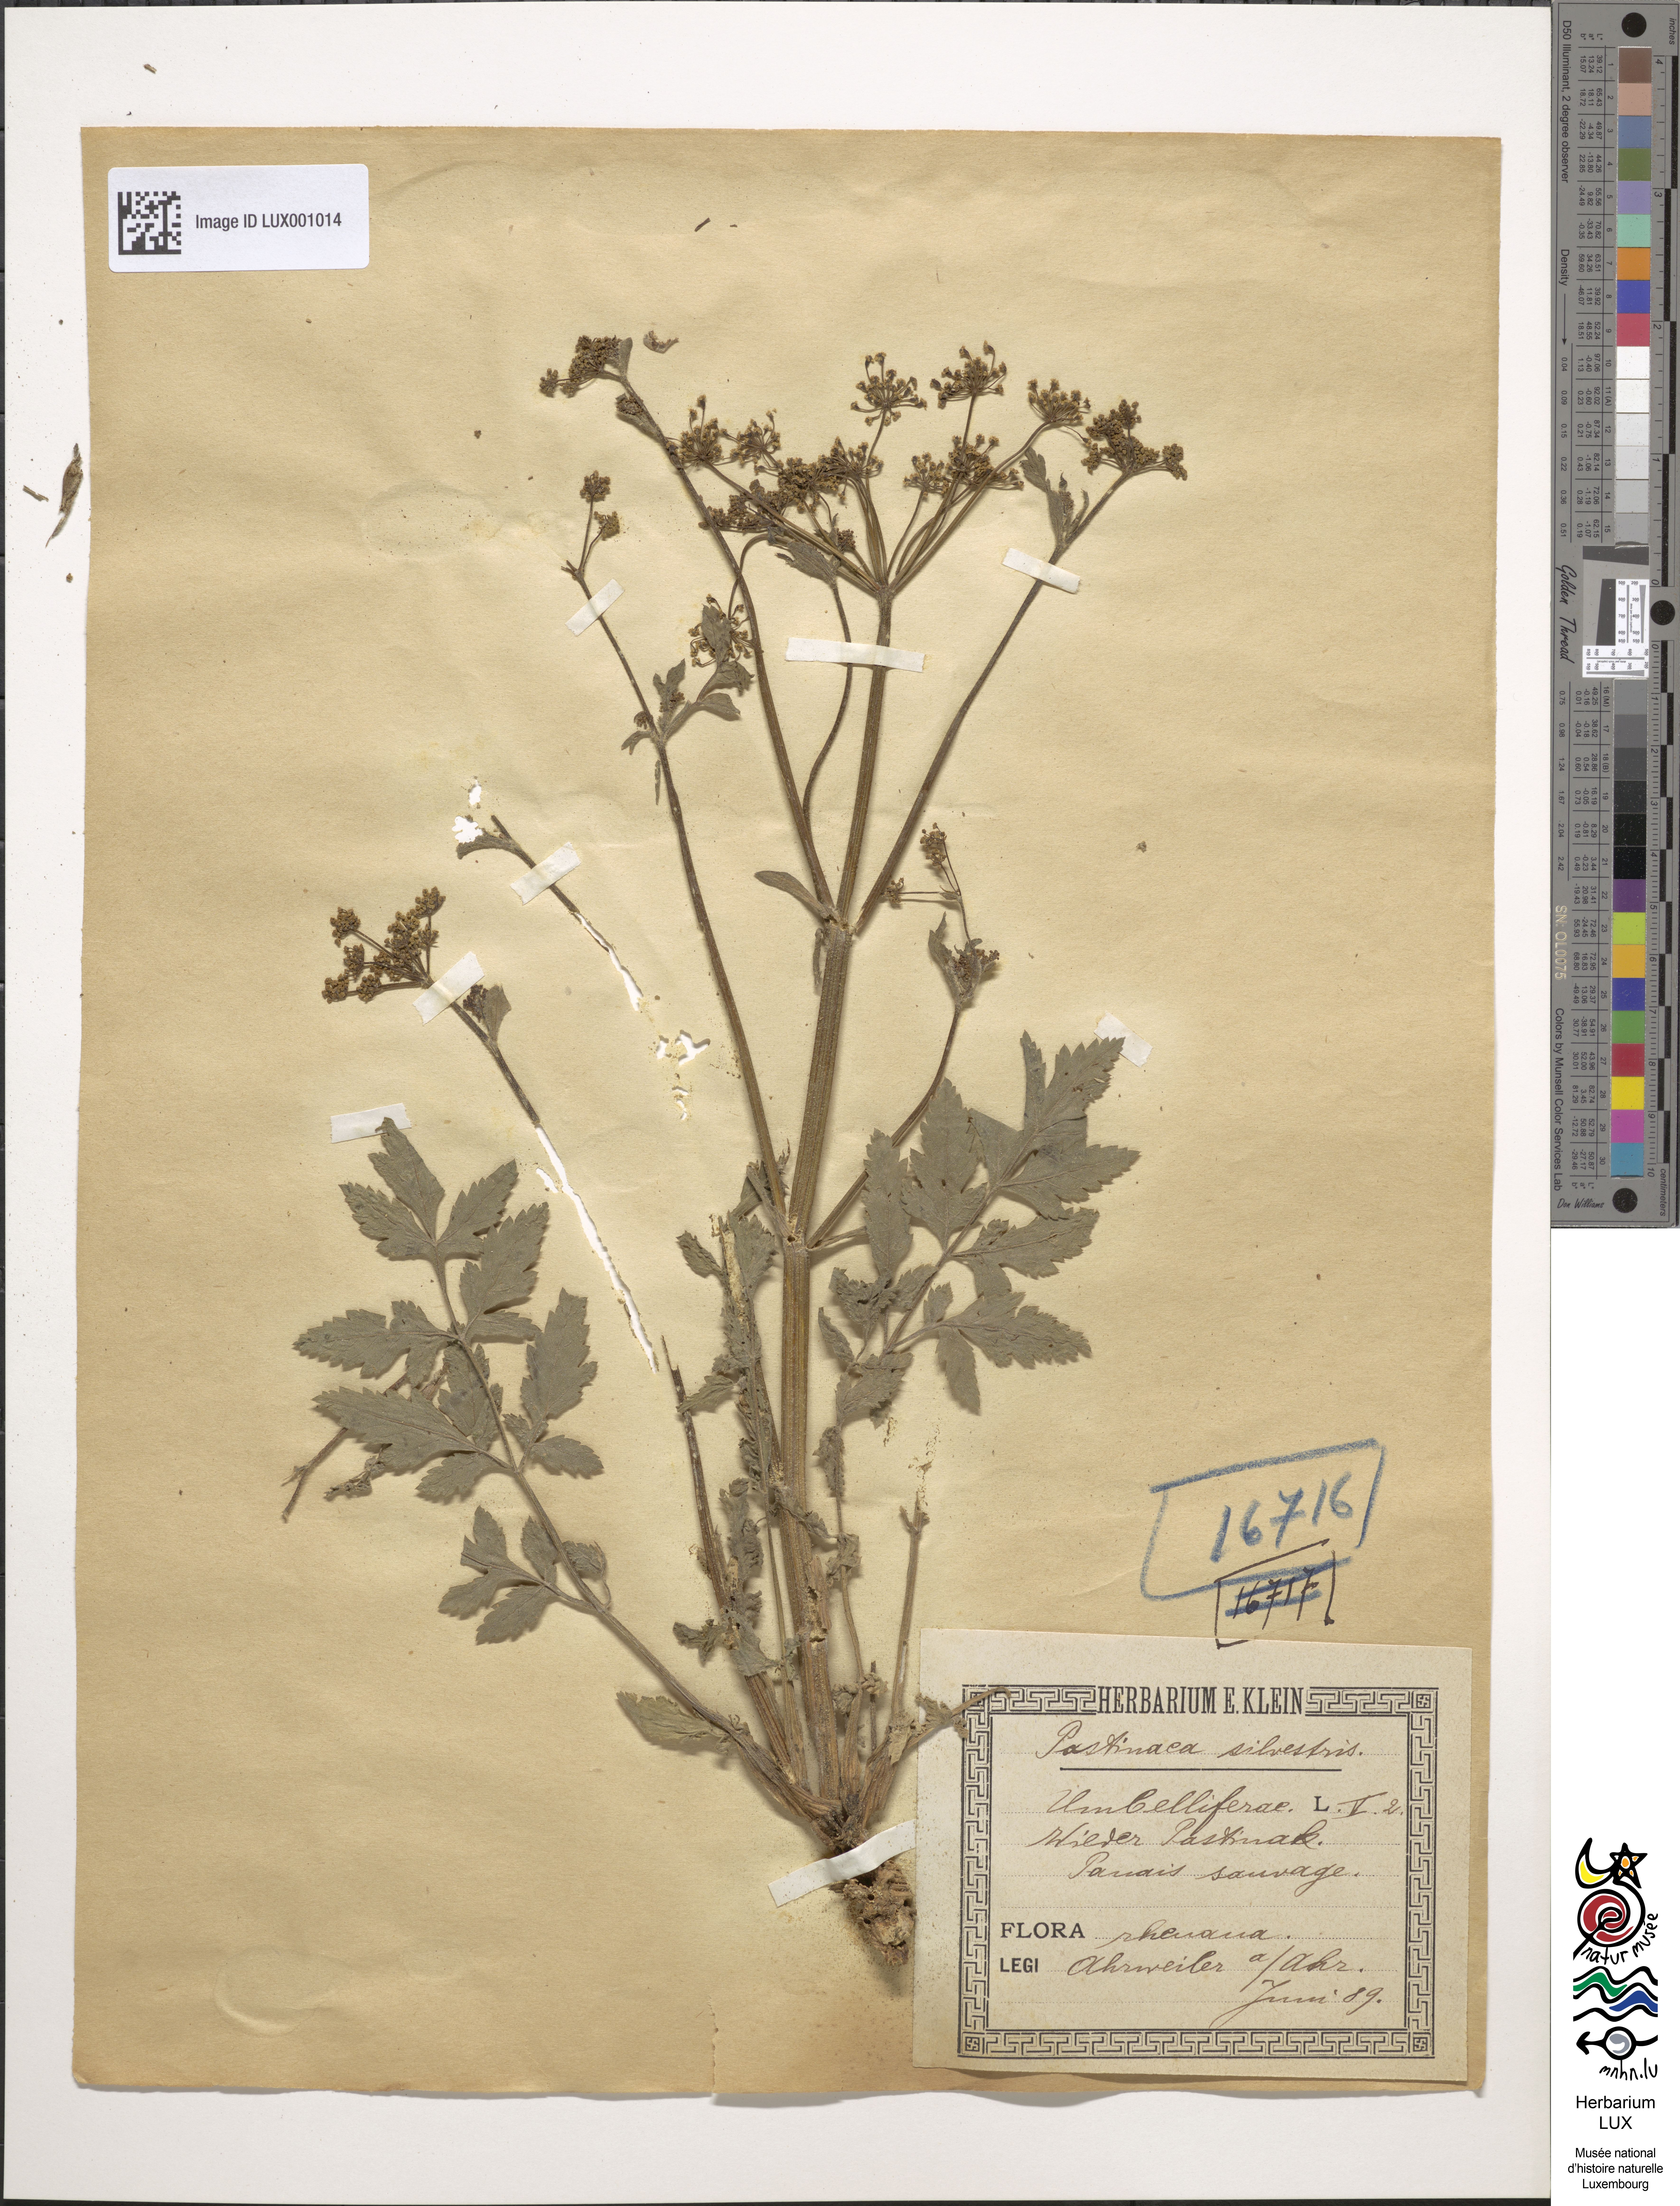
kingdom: Plantae
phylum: Tracheophyta
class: Magnoliopsida
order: Apiales
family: Apiaceae
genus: Pastinaca
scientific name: Pastinaca sativa
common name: Wild parsnip
